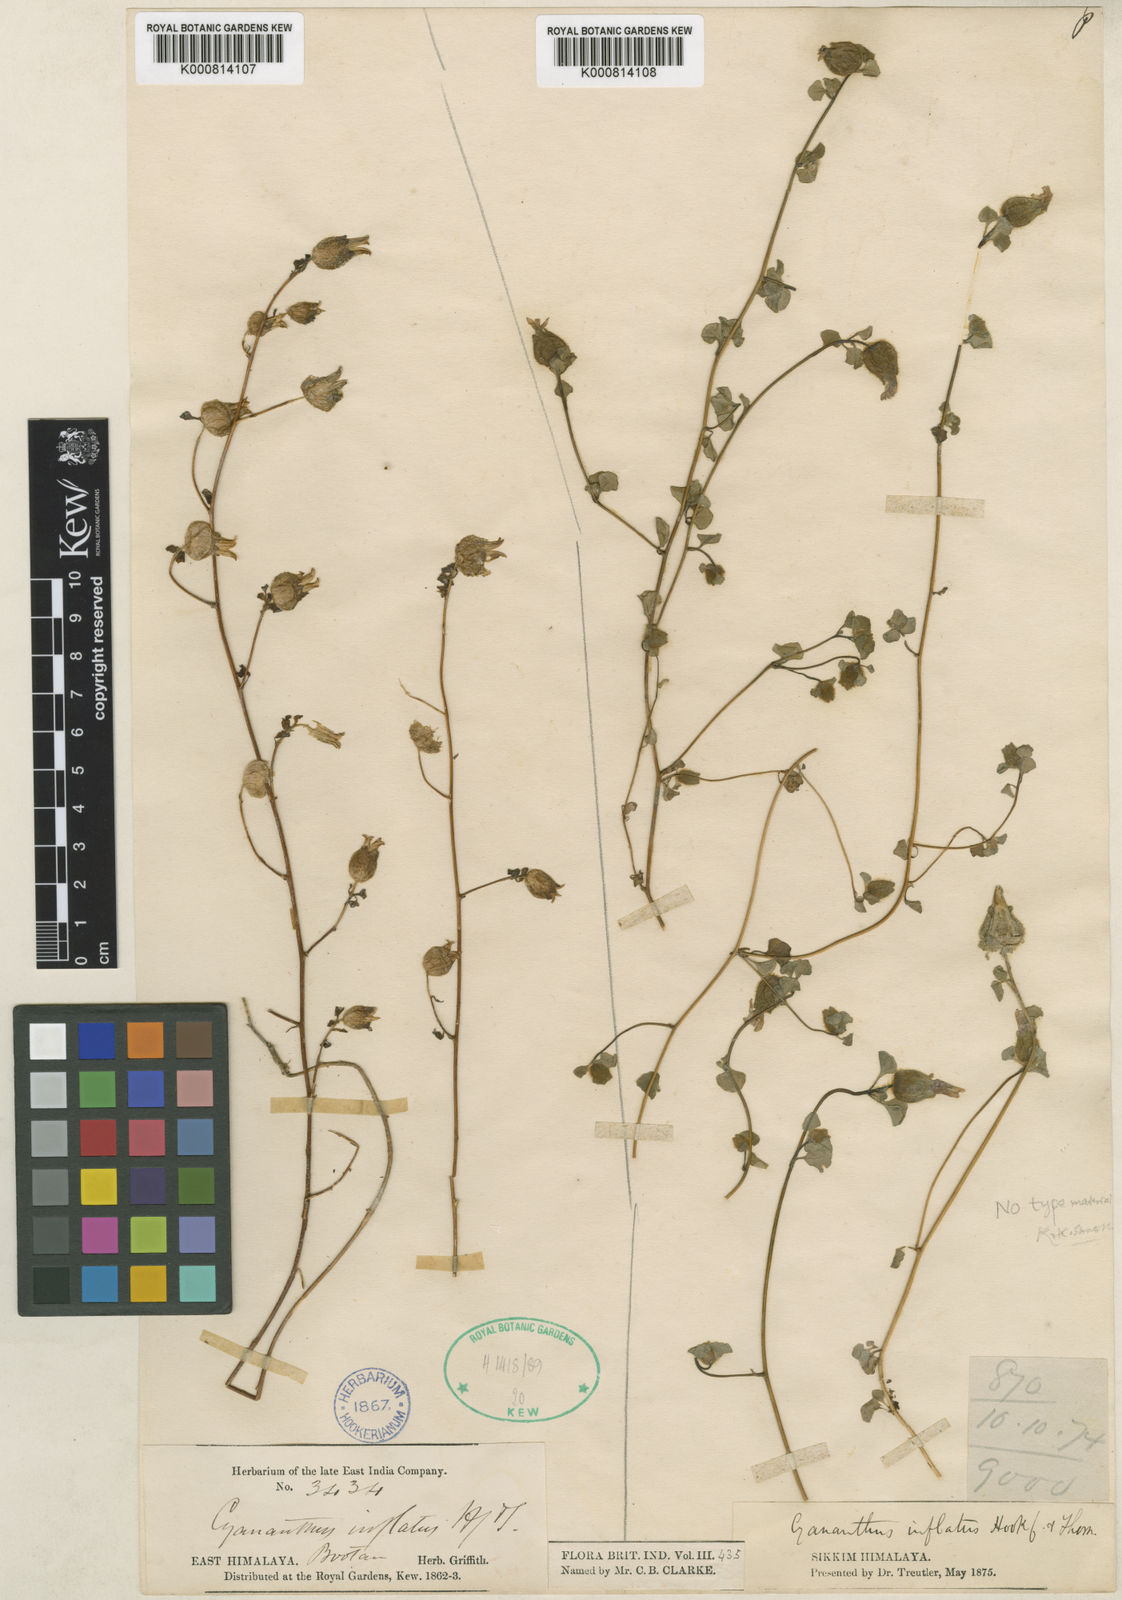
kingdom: Plantae
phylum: Tracheophyta
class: Magnoliopsida
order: Asterales
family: Campanulaceae
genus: Cyananthus
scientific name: Cyananthus inflatus
